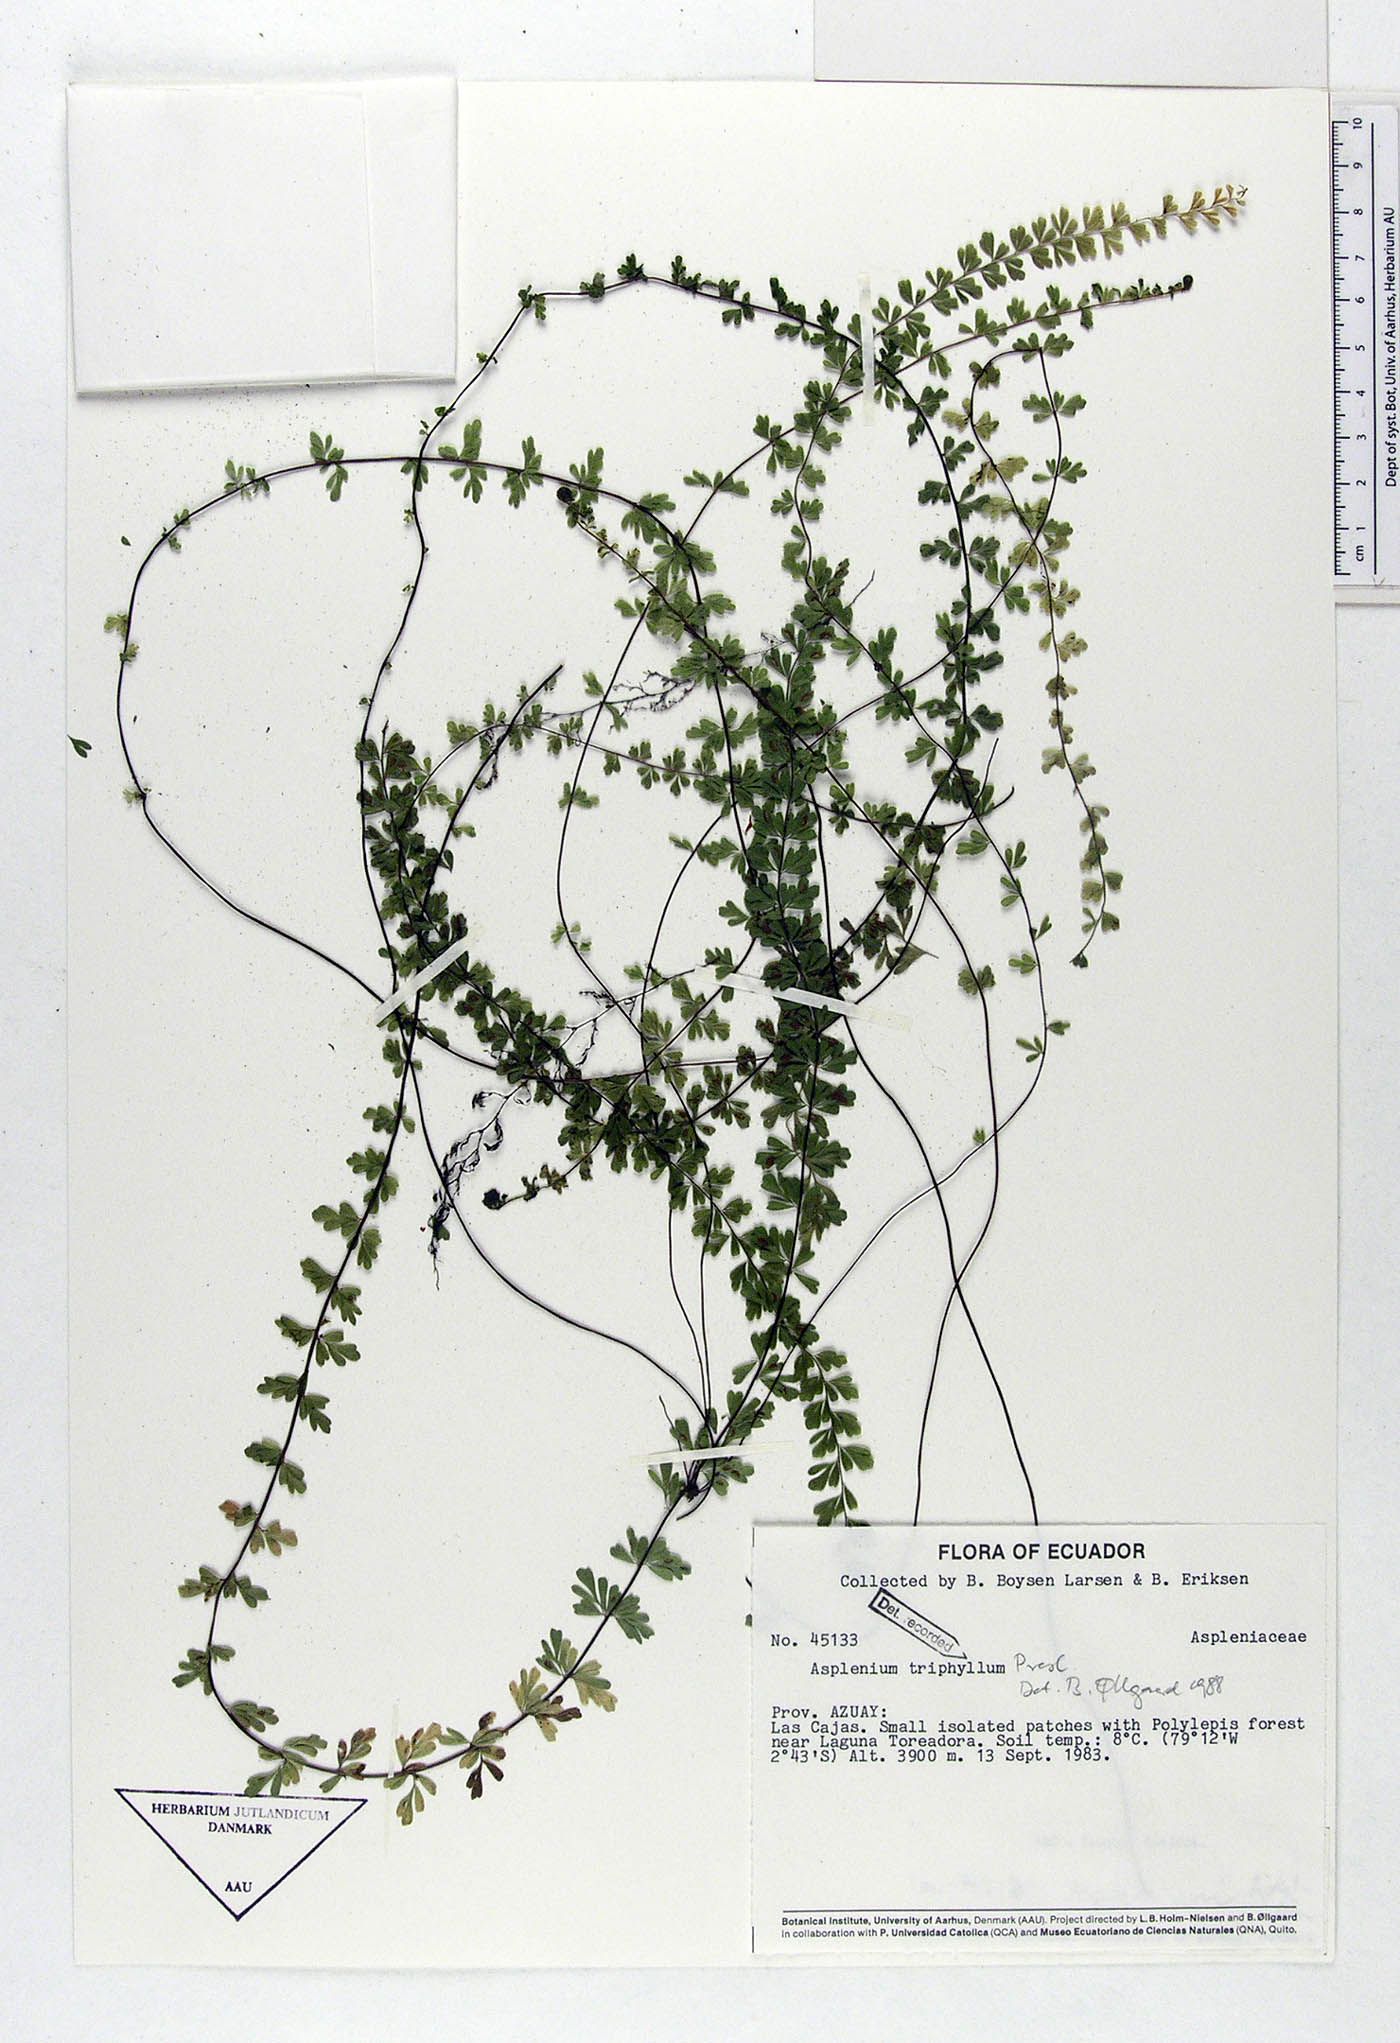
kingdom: Plantae
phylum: Tracheophyta
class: Polypodiopsida
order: Polypodiales
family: Aspleniaceae
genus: Asplenium
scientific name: Asplenium triphyllum
